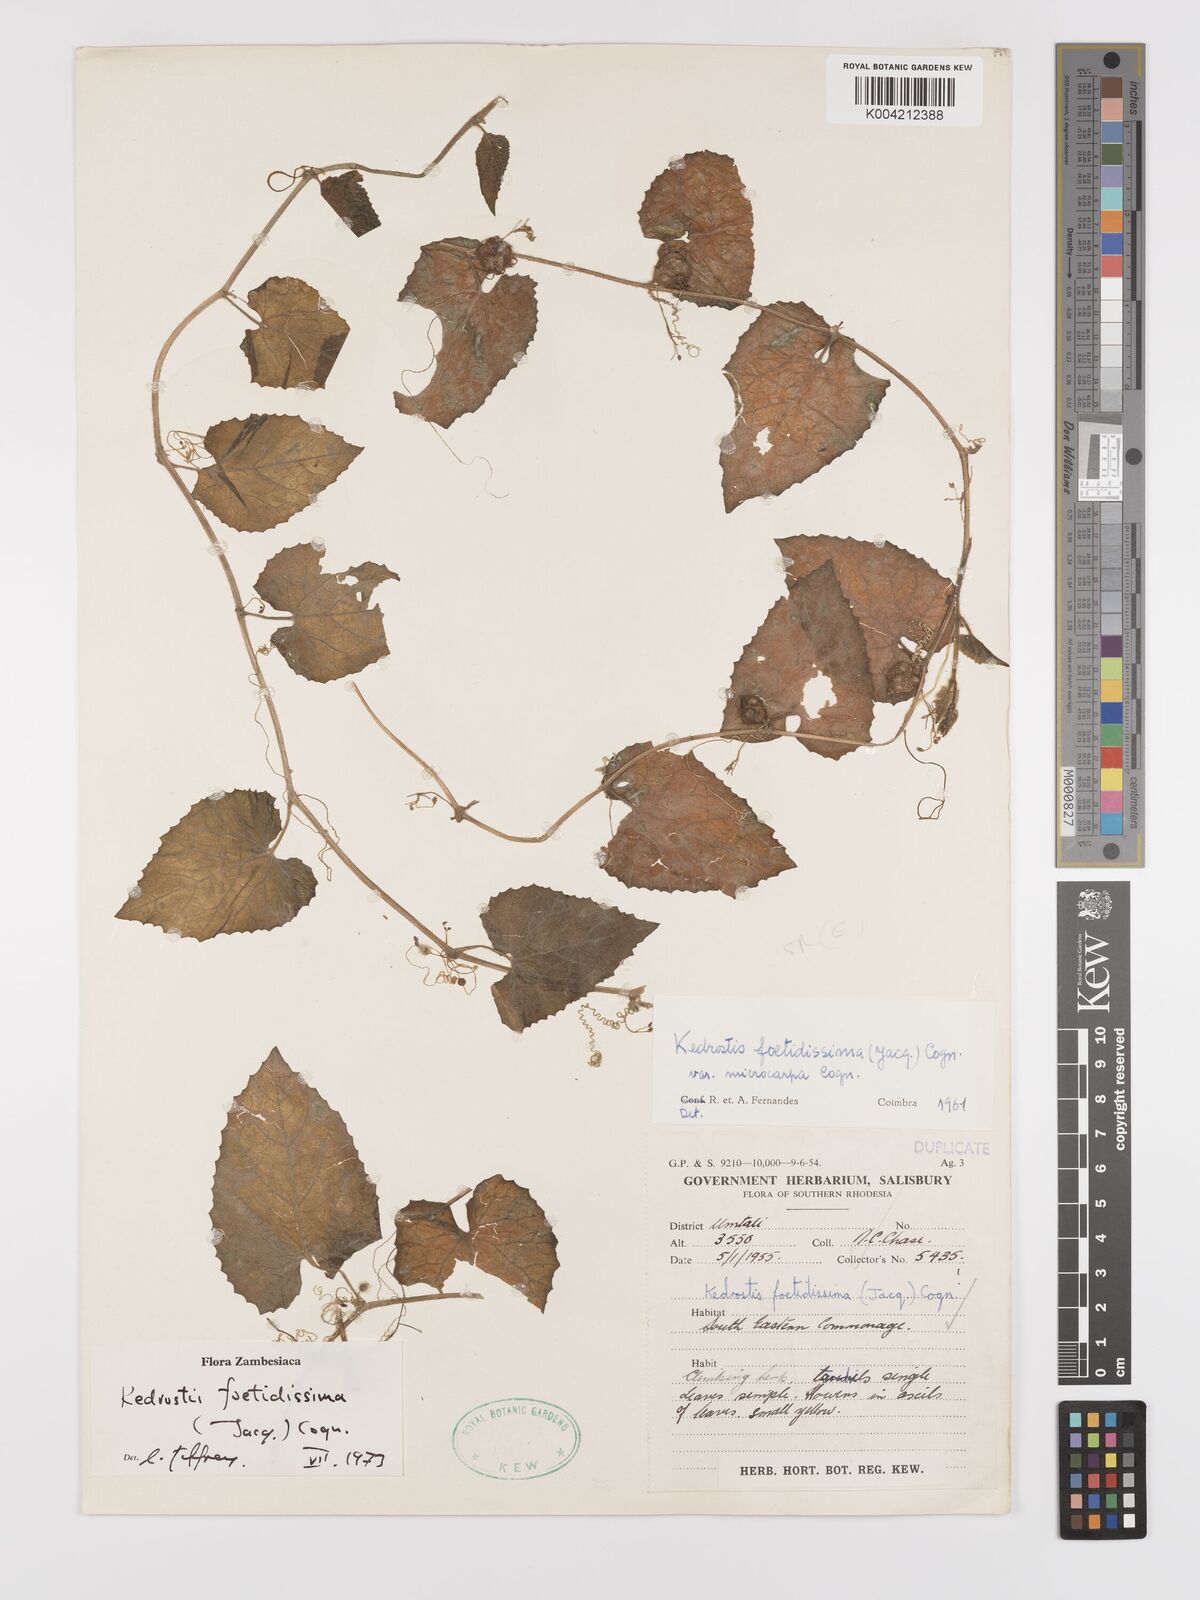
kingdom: Plantae
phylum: Tracheophyta
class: Magnoliopsida
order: Cucurbitales
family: Cucurbitaceae
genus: Kedrostis
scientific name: Kedrostis foetidissima
